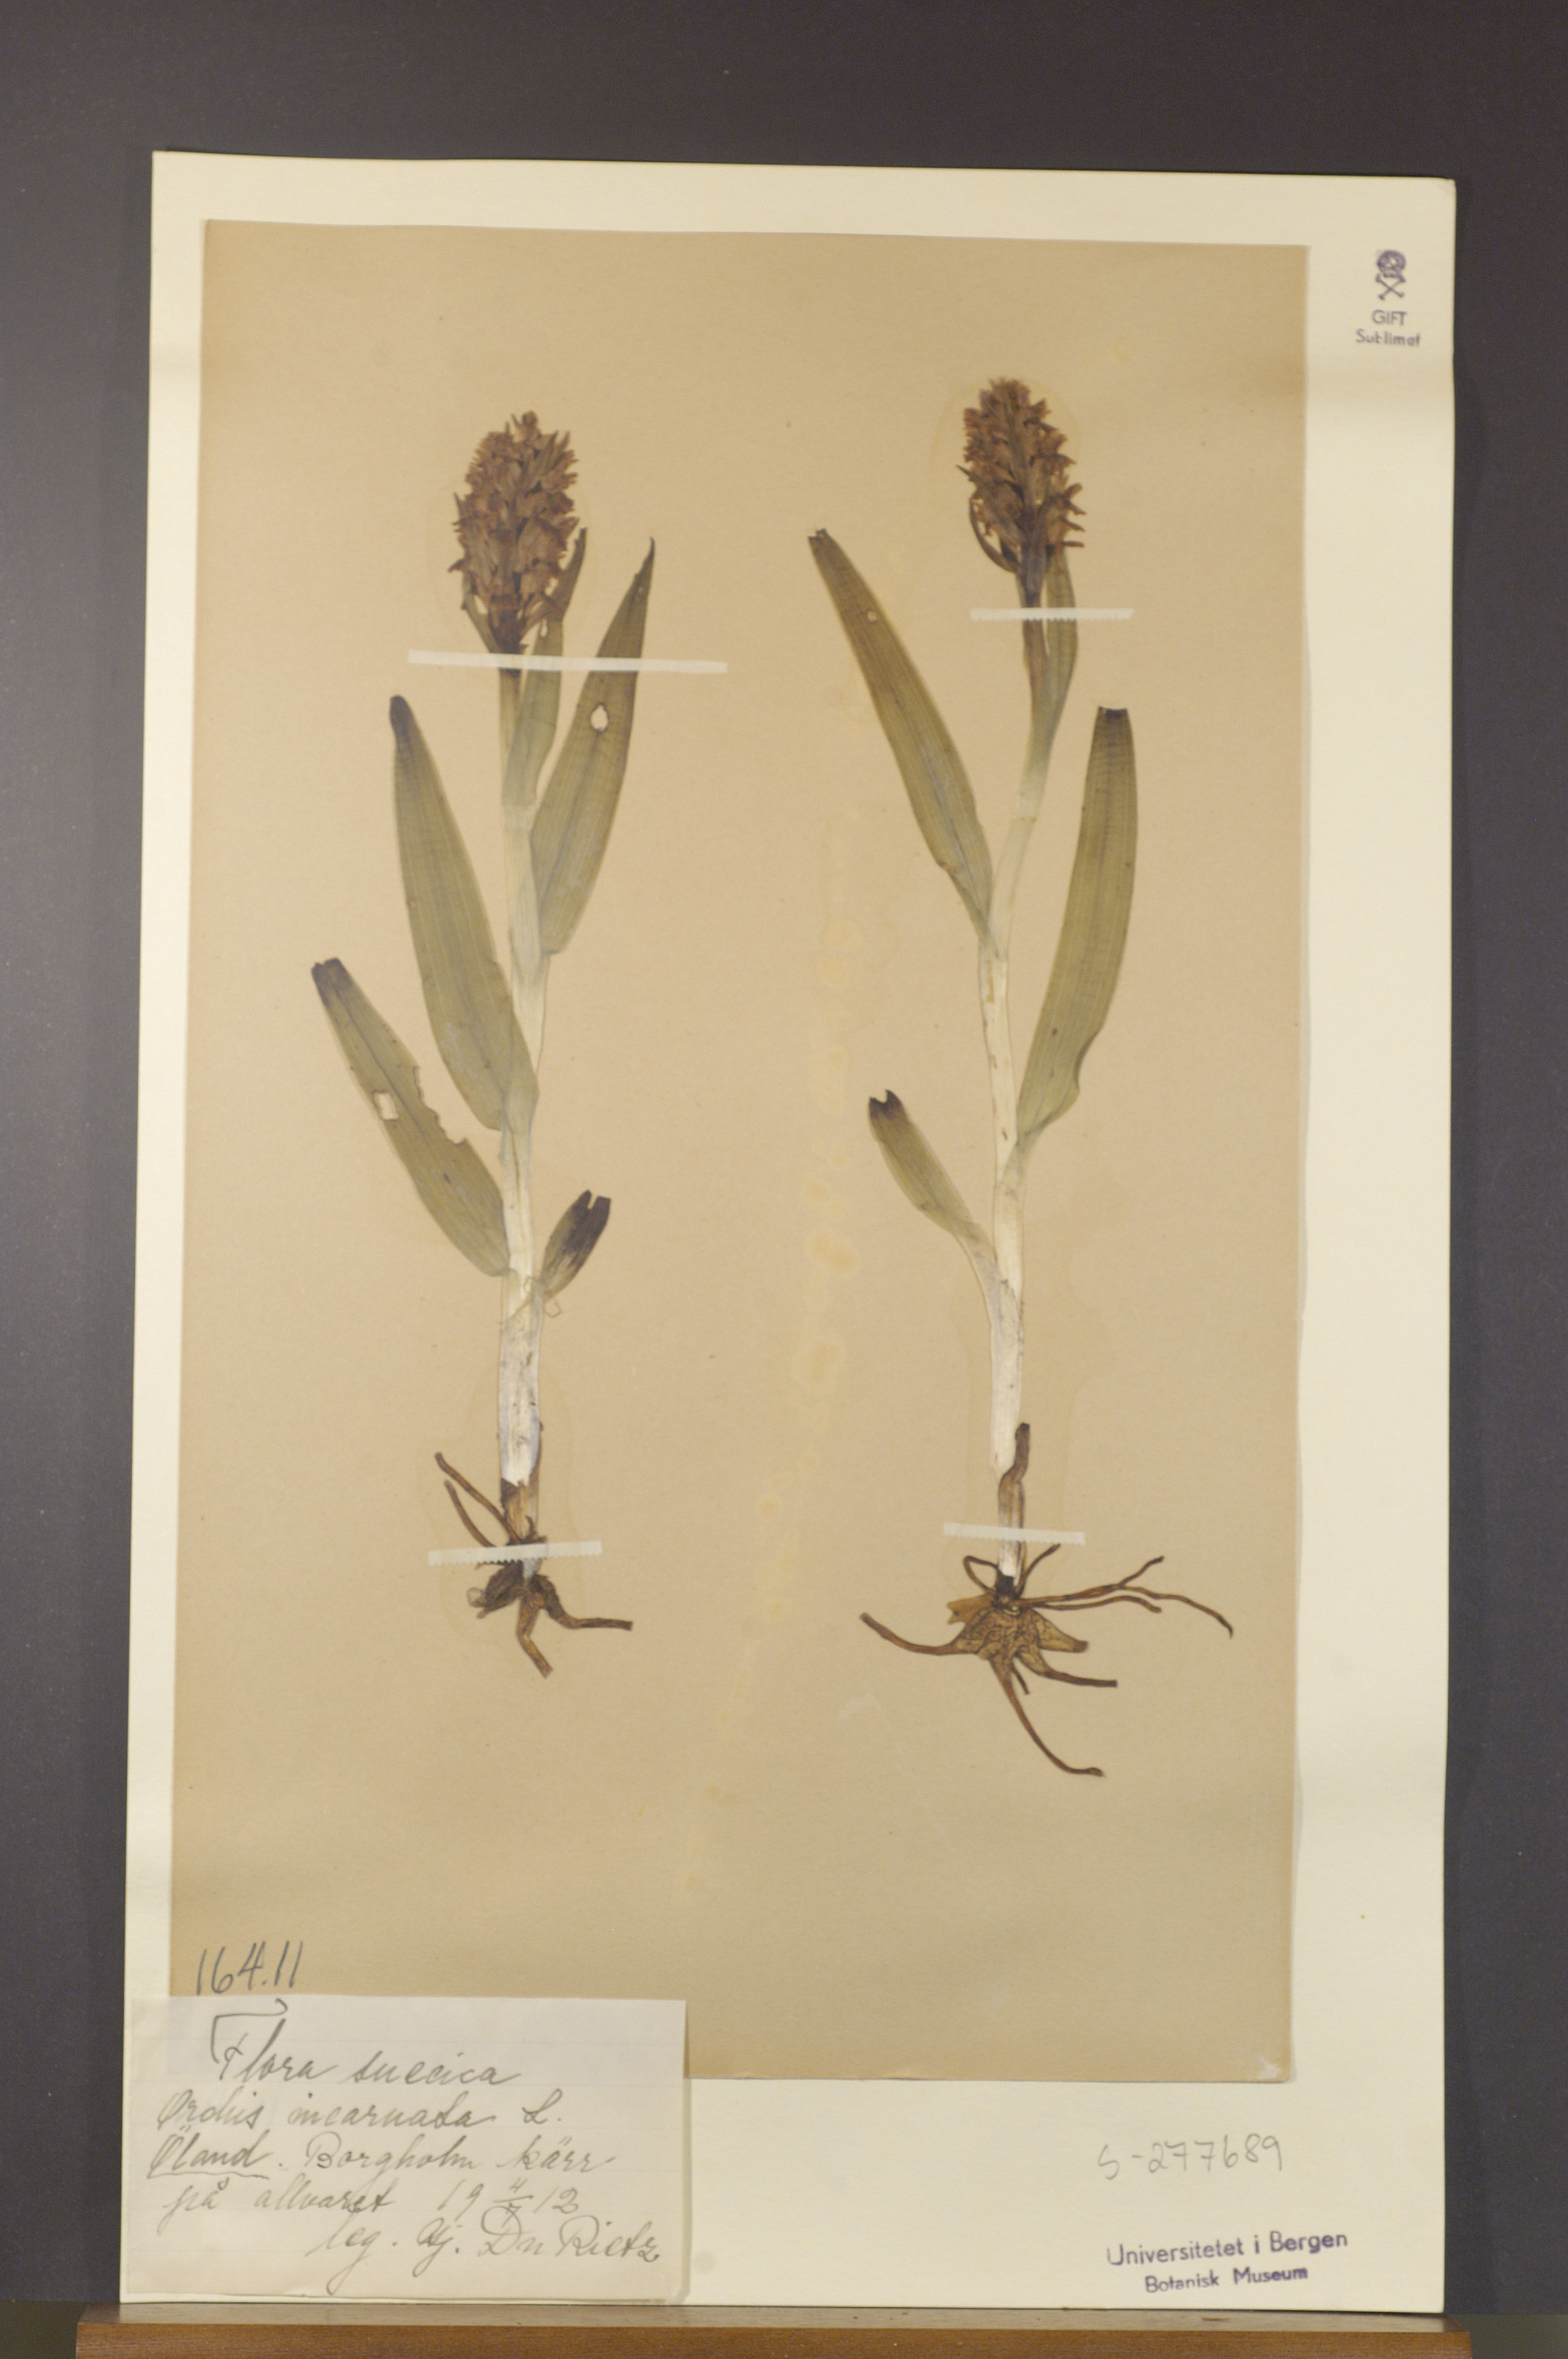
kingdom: Plantae
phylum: Tracheophyta
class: Liliopsida
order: Asparagales
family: Orchidaceae
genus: Dactylorhiza
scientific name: Dactylorhiza incarnata
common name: Early marsh-orchid
